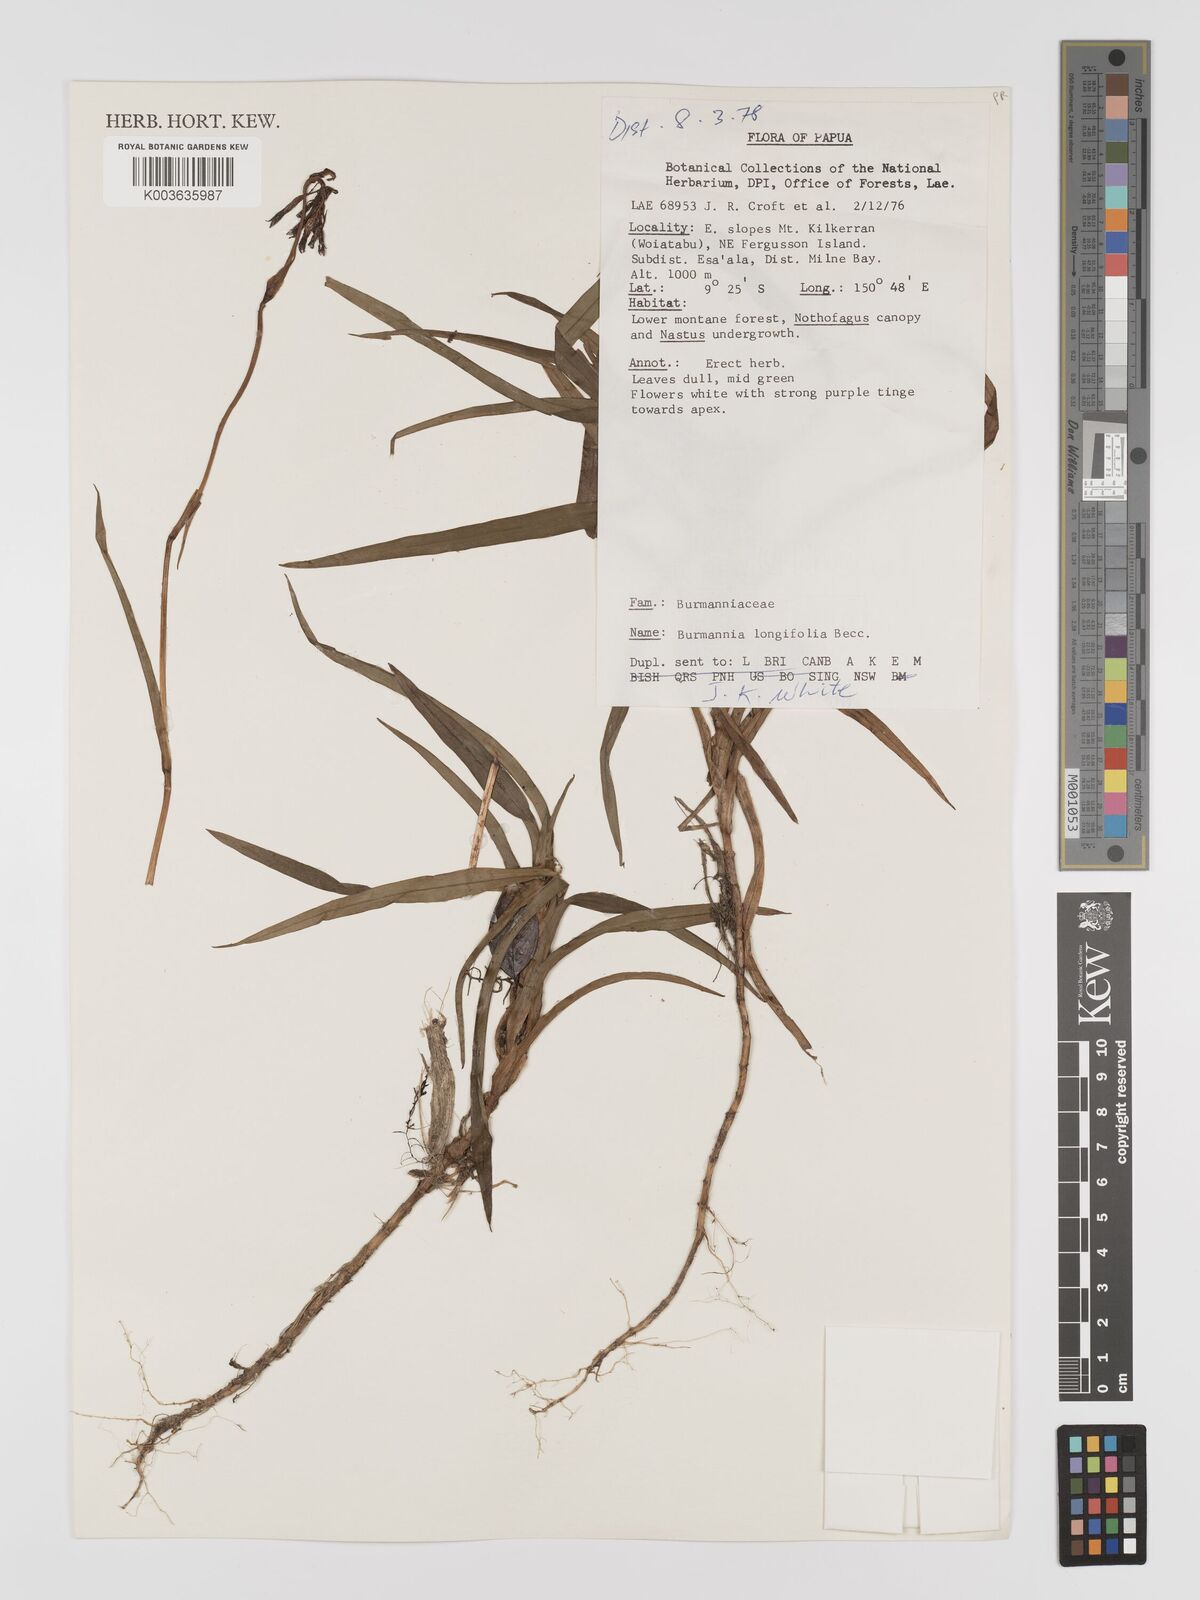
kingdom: Plantae
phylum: Tracheophyta
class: Liliopsida
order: Dioscoreales
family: Burmanniaceae
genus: Burmannia
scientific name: Burmannia longifolia
